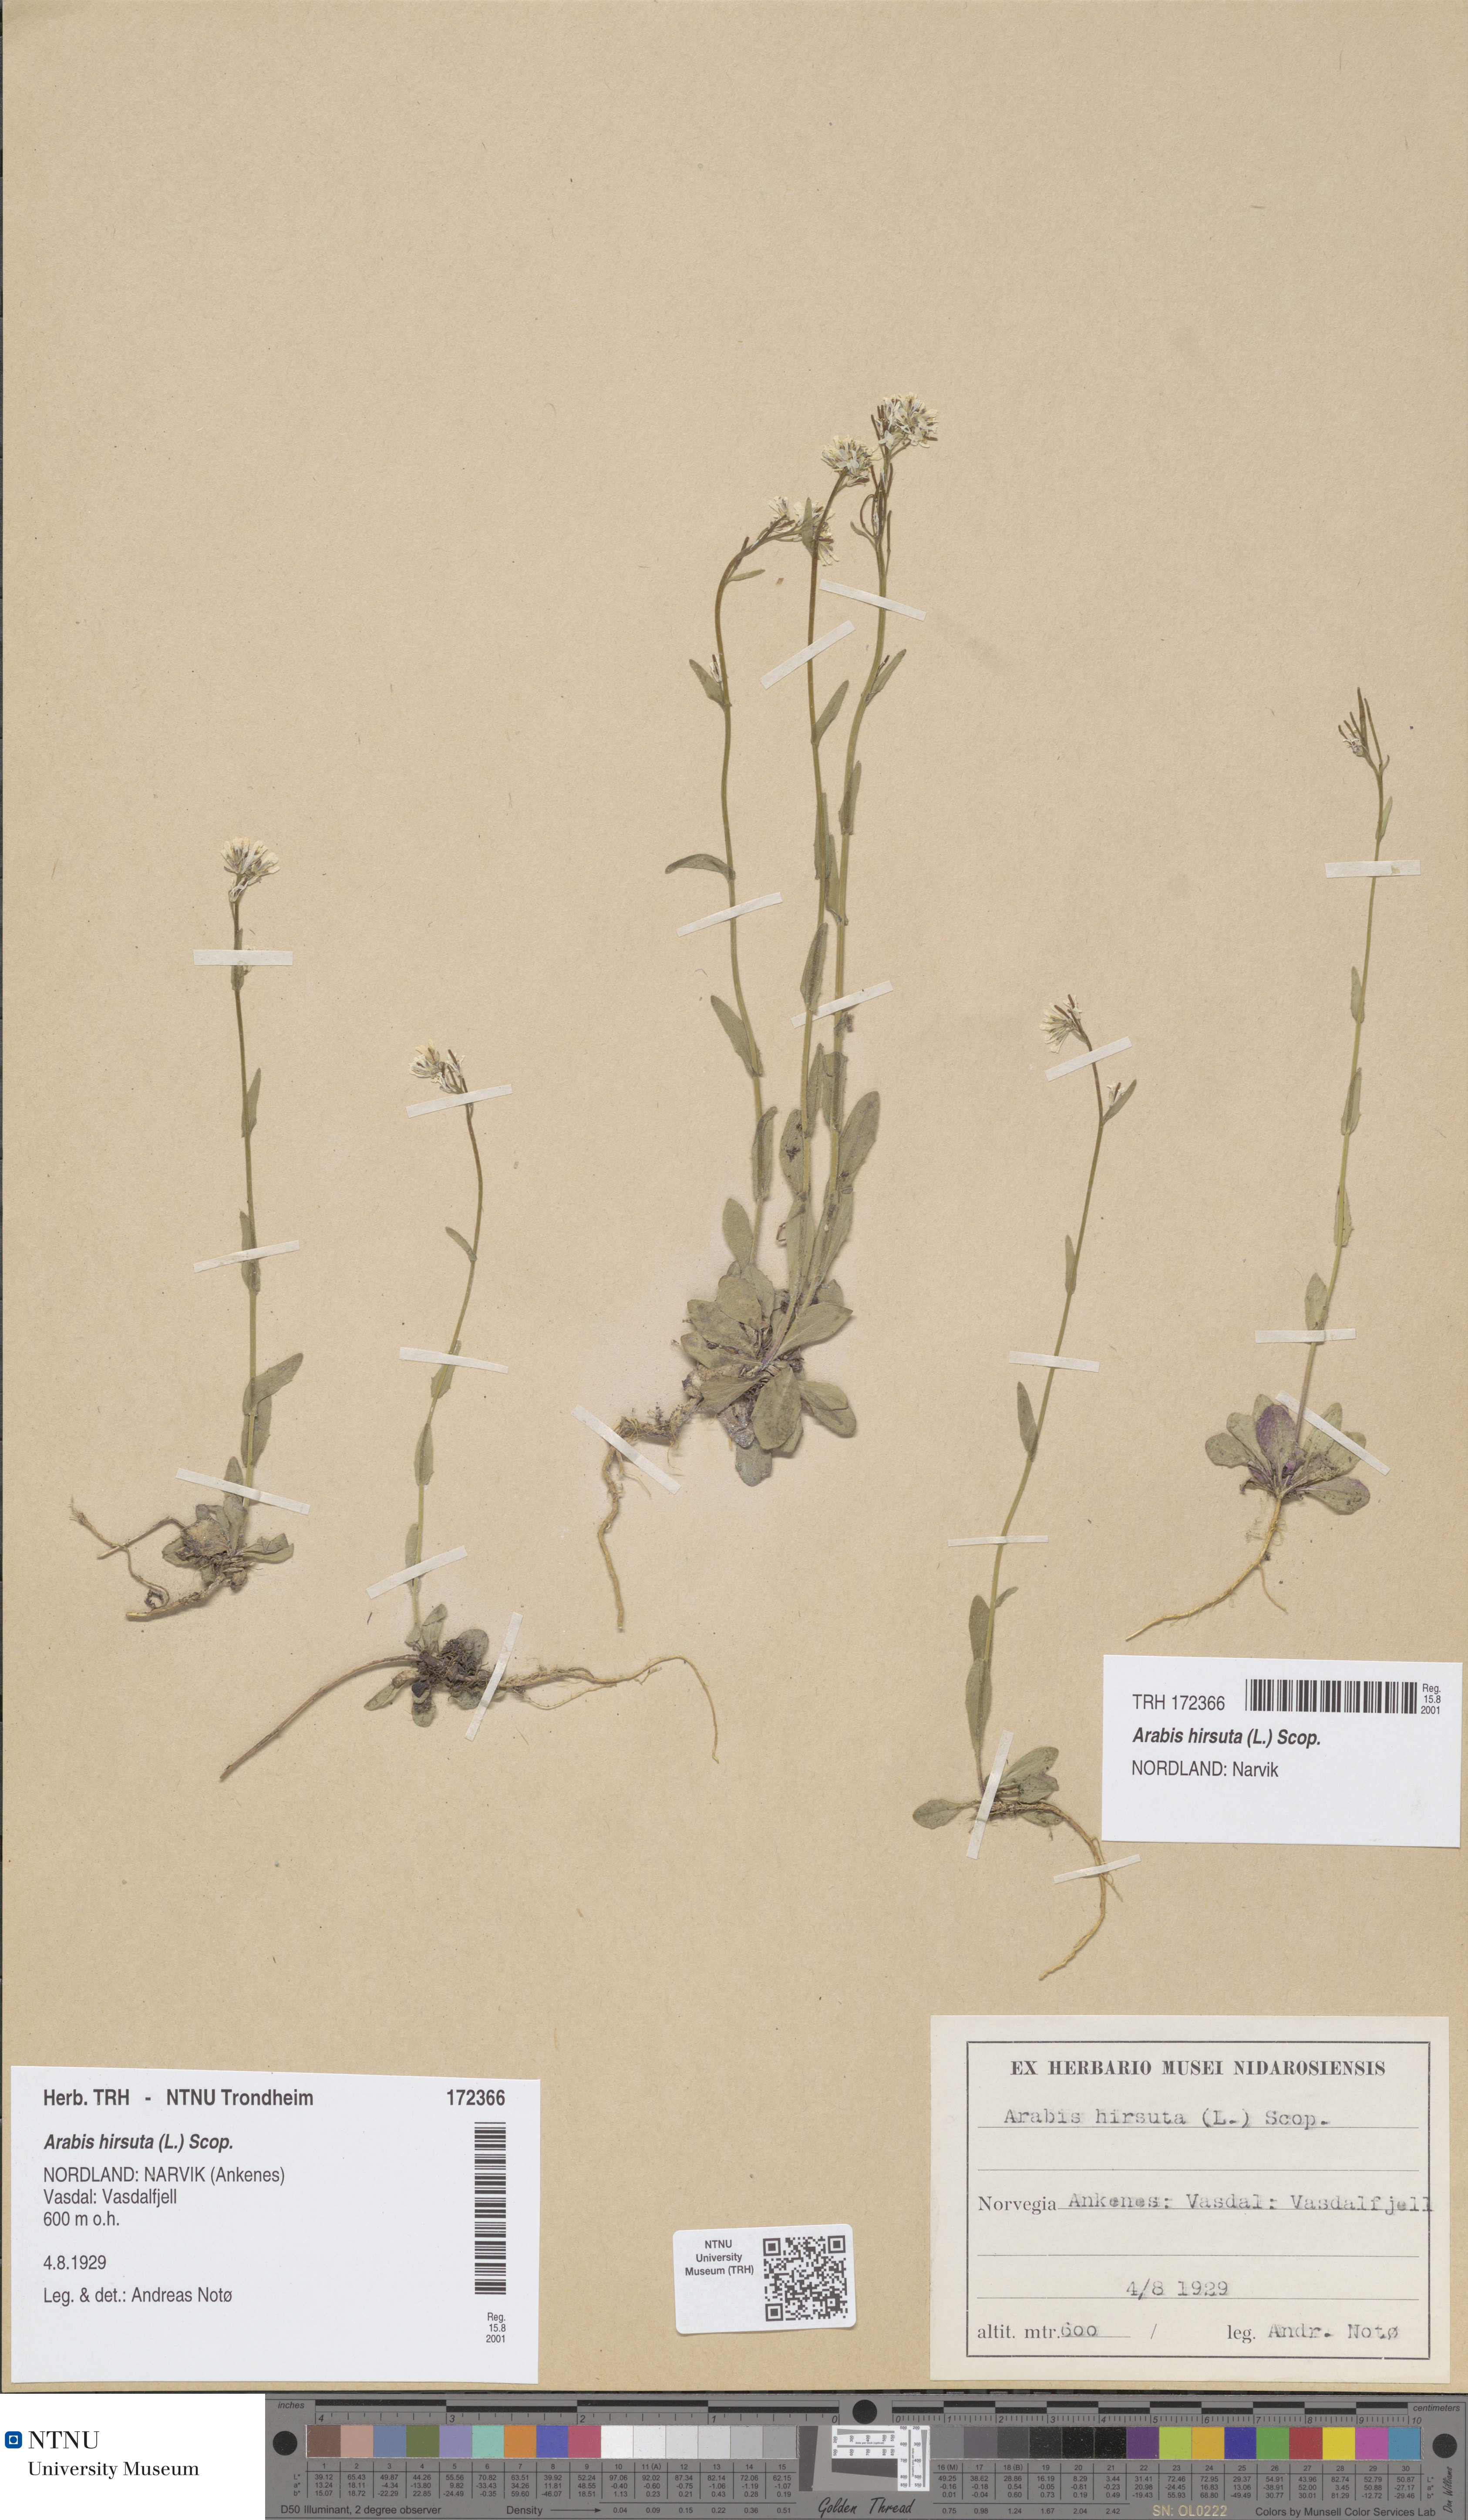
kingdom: Plantae
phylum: Tracheophyta
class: Magnoliopsida
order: Brassicales
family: Brassicaceae
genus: Arabis
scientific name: Arabis hirsuta
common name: Hairy rock-cress
